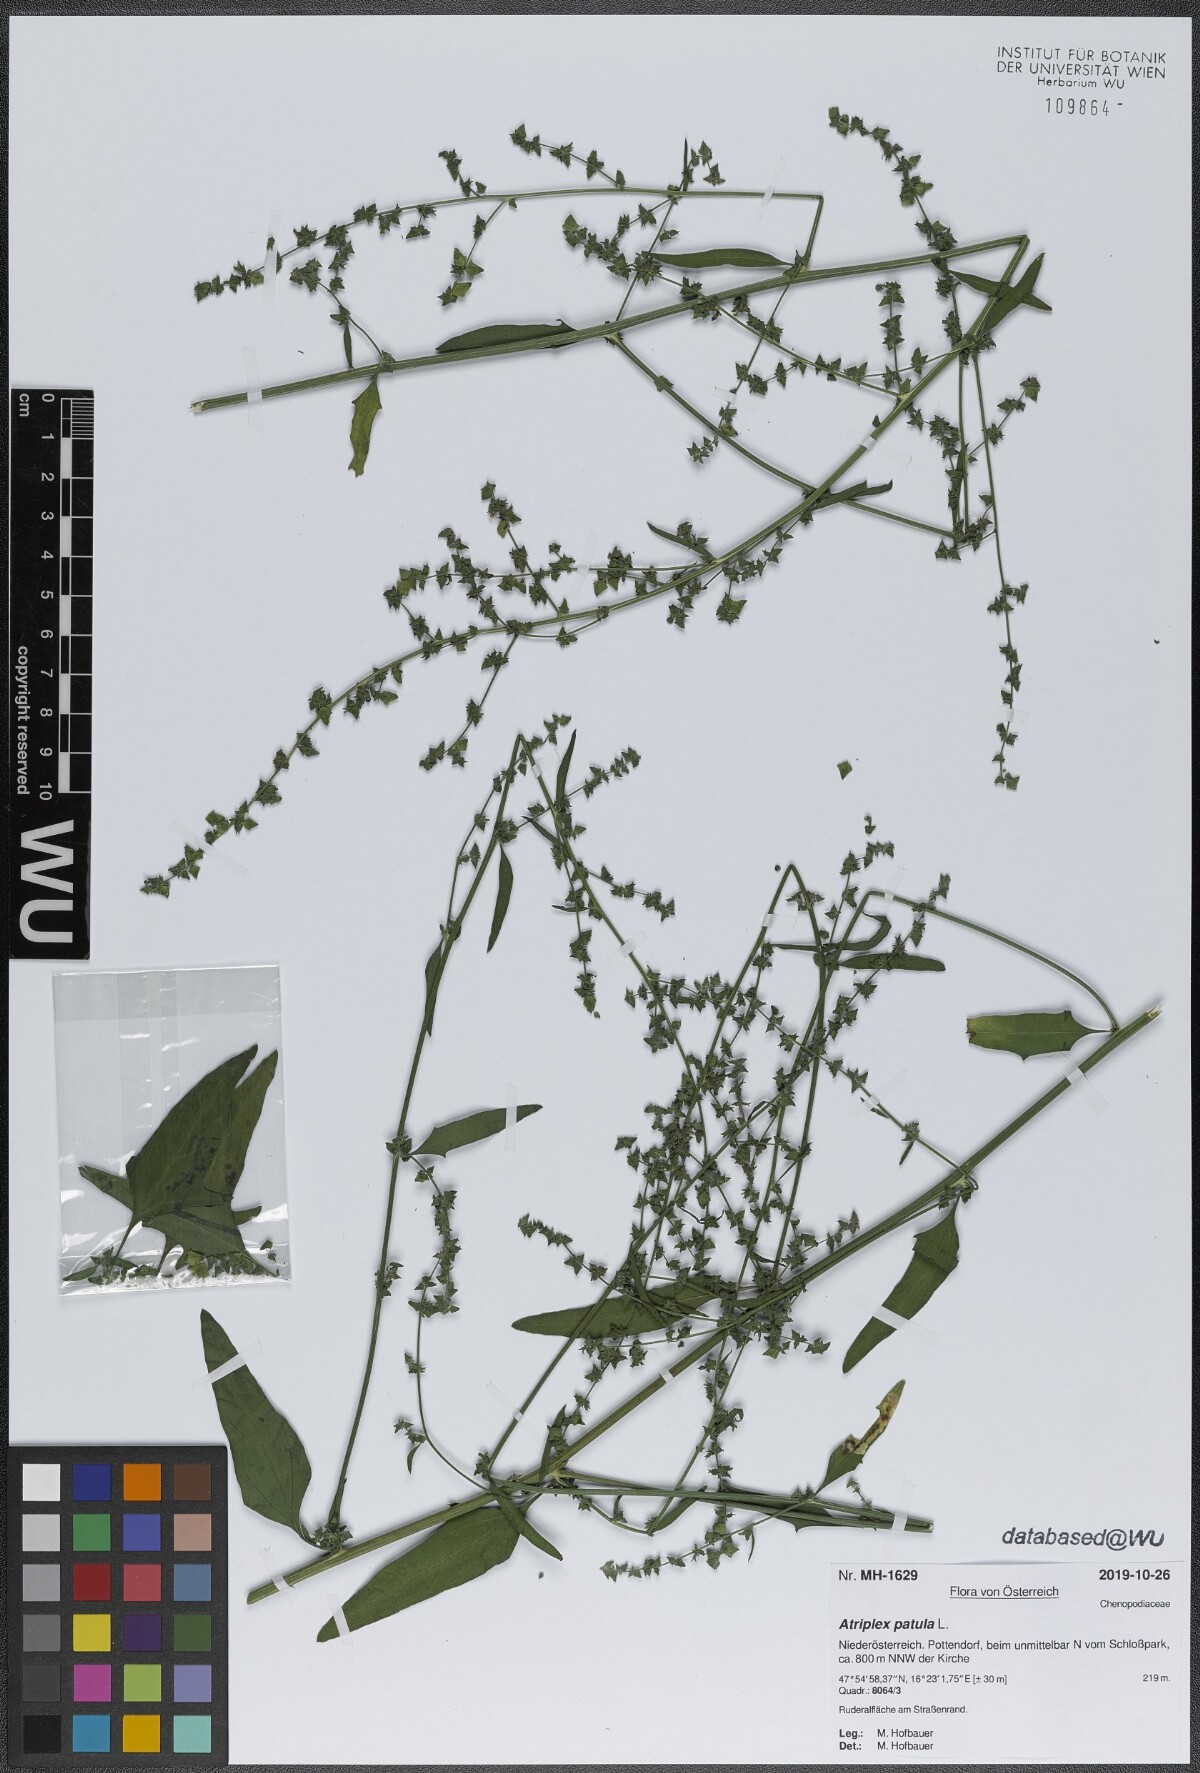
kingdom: Plantae
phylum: Tracheophyta
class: Magnoliopsida
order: Caryophyllales
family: Amaranthaceae
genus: Atriplex
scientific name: Atriplex patula
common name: Common orache
